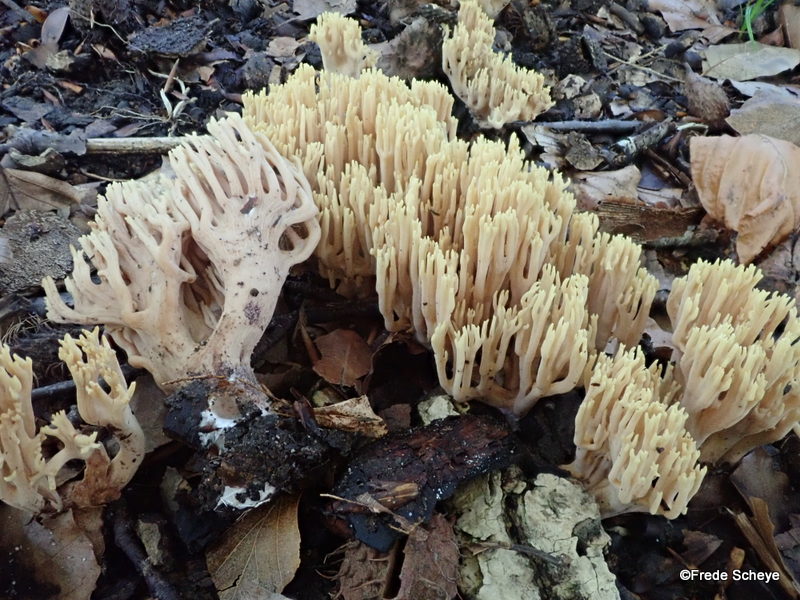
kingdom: Fungi
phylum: Basidiomycota
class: Agaricomycetes
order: Gomphales
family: Gomphaceae
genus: Ramaria
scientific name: Ramaria stricta
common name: rank koralsvamp
